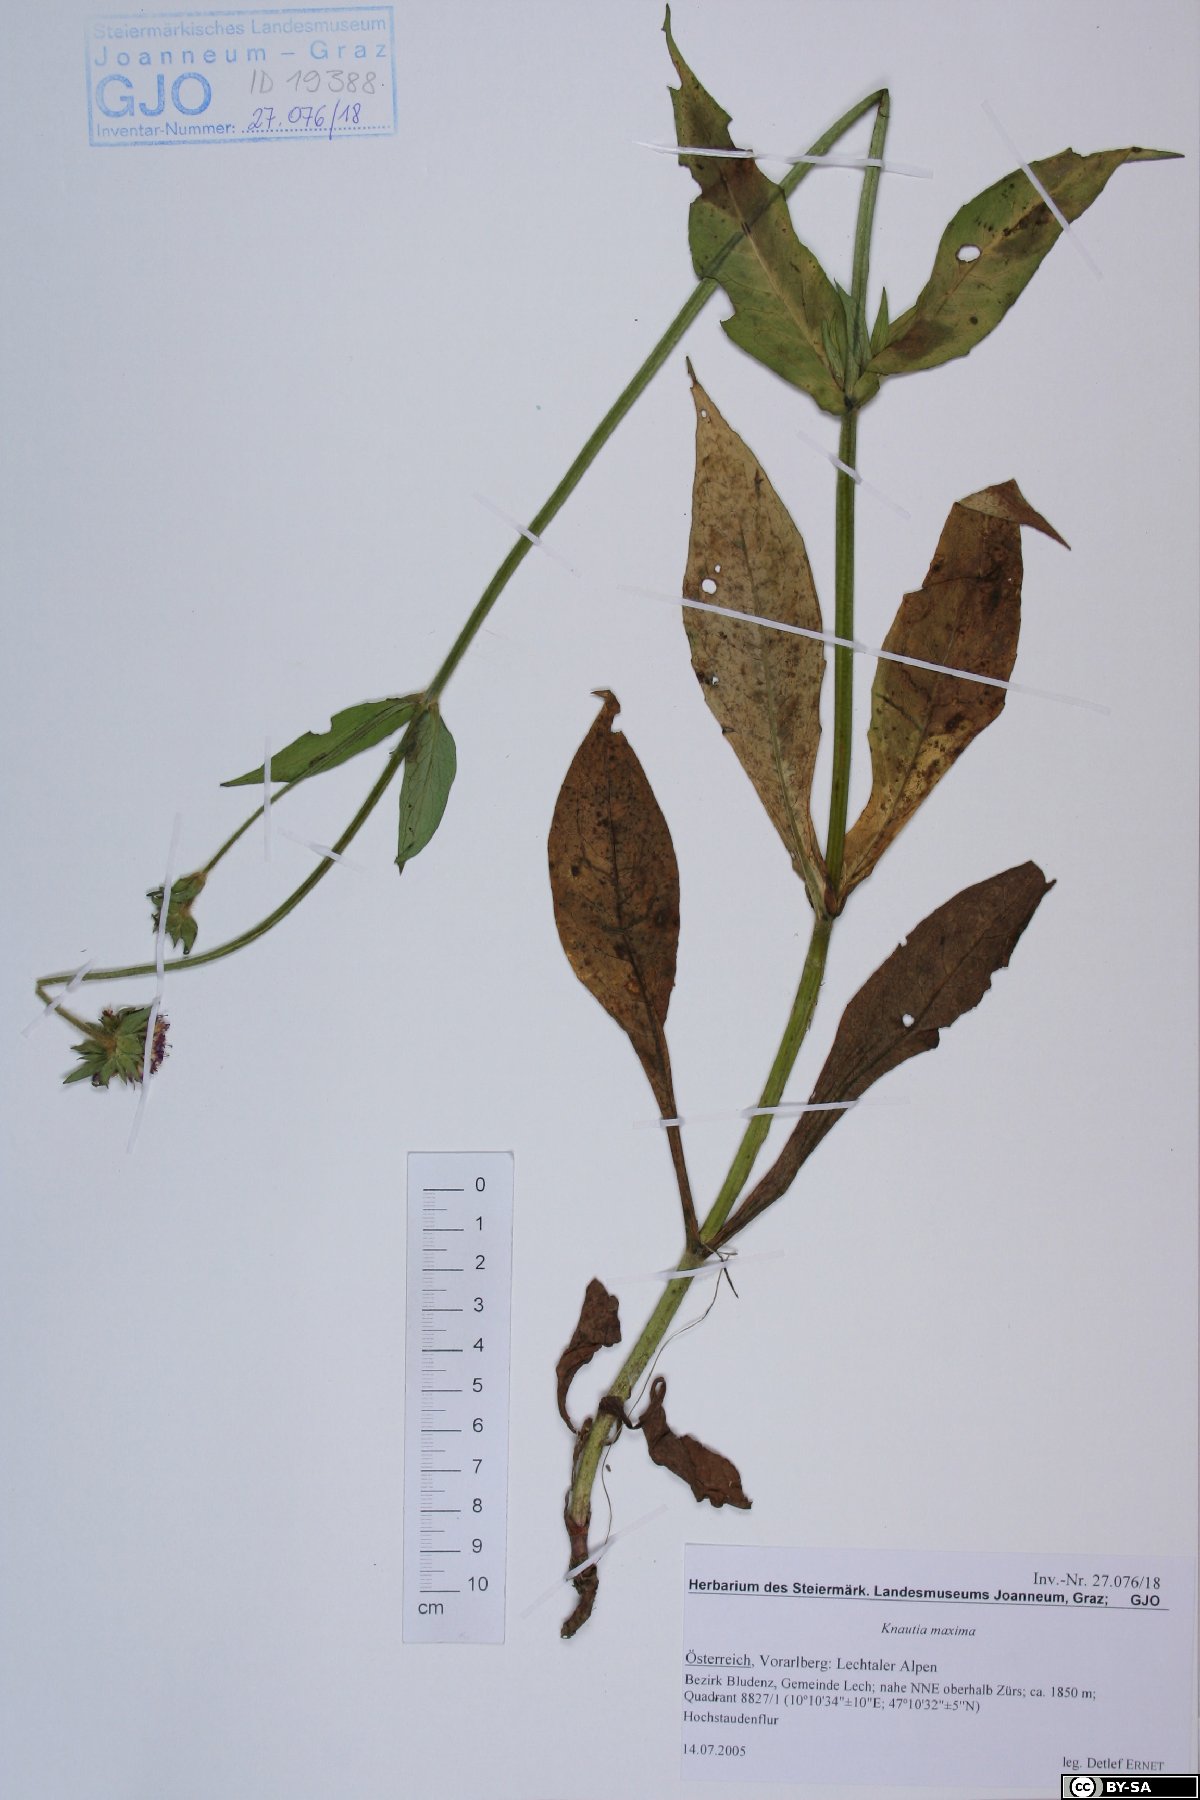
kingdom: Plantae
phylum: Tracheophyta
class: Magnoliopsida
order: Dipsacales
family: Caprifoliaceae
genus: Knautia
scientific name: Knautia dipsacifolia
